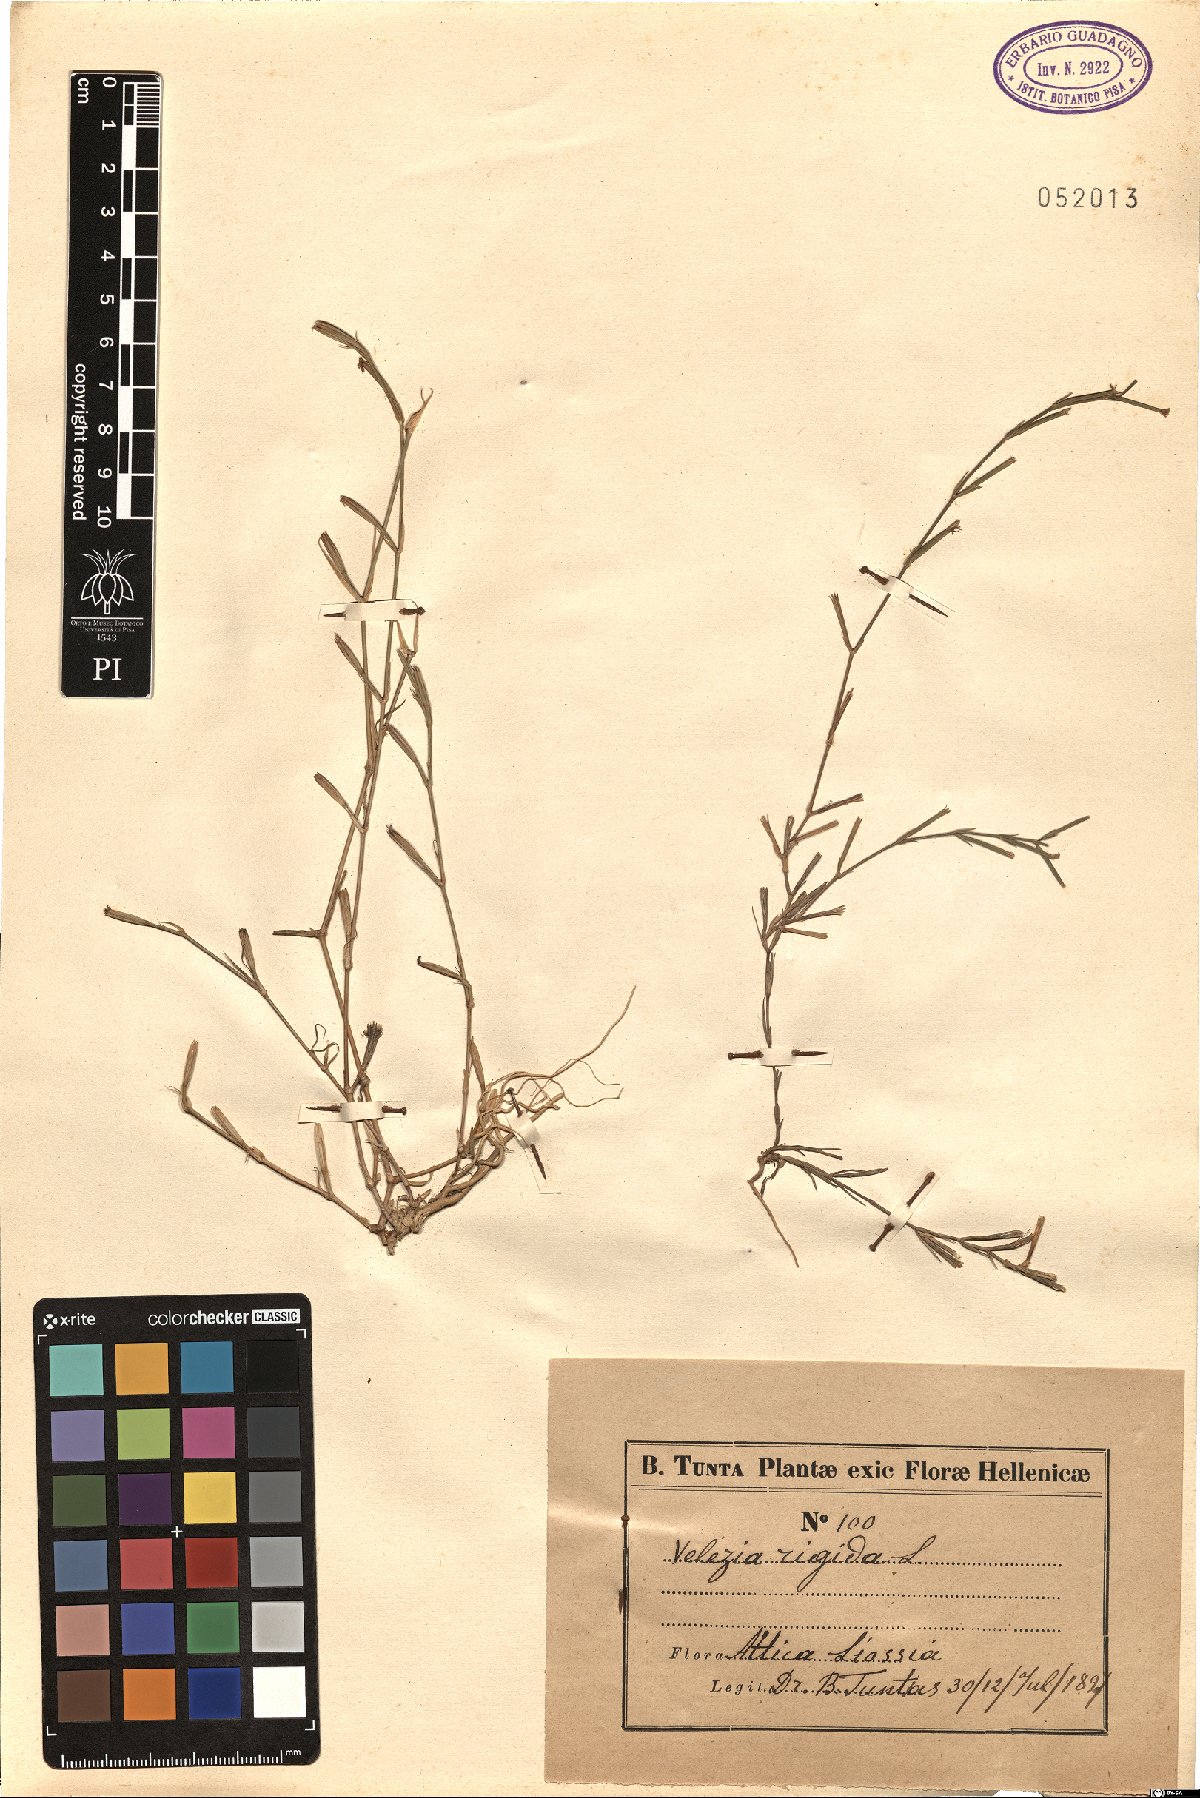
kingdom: Plantae
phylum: Tracheophyta
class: Magnoliopsida
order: Caryophyllales
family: Caryophyllaceae
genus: Dianthus
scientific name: Dianthus nudiflorus
